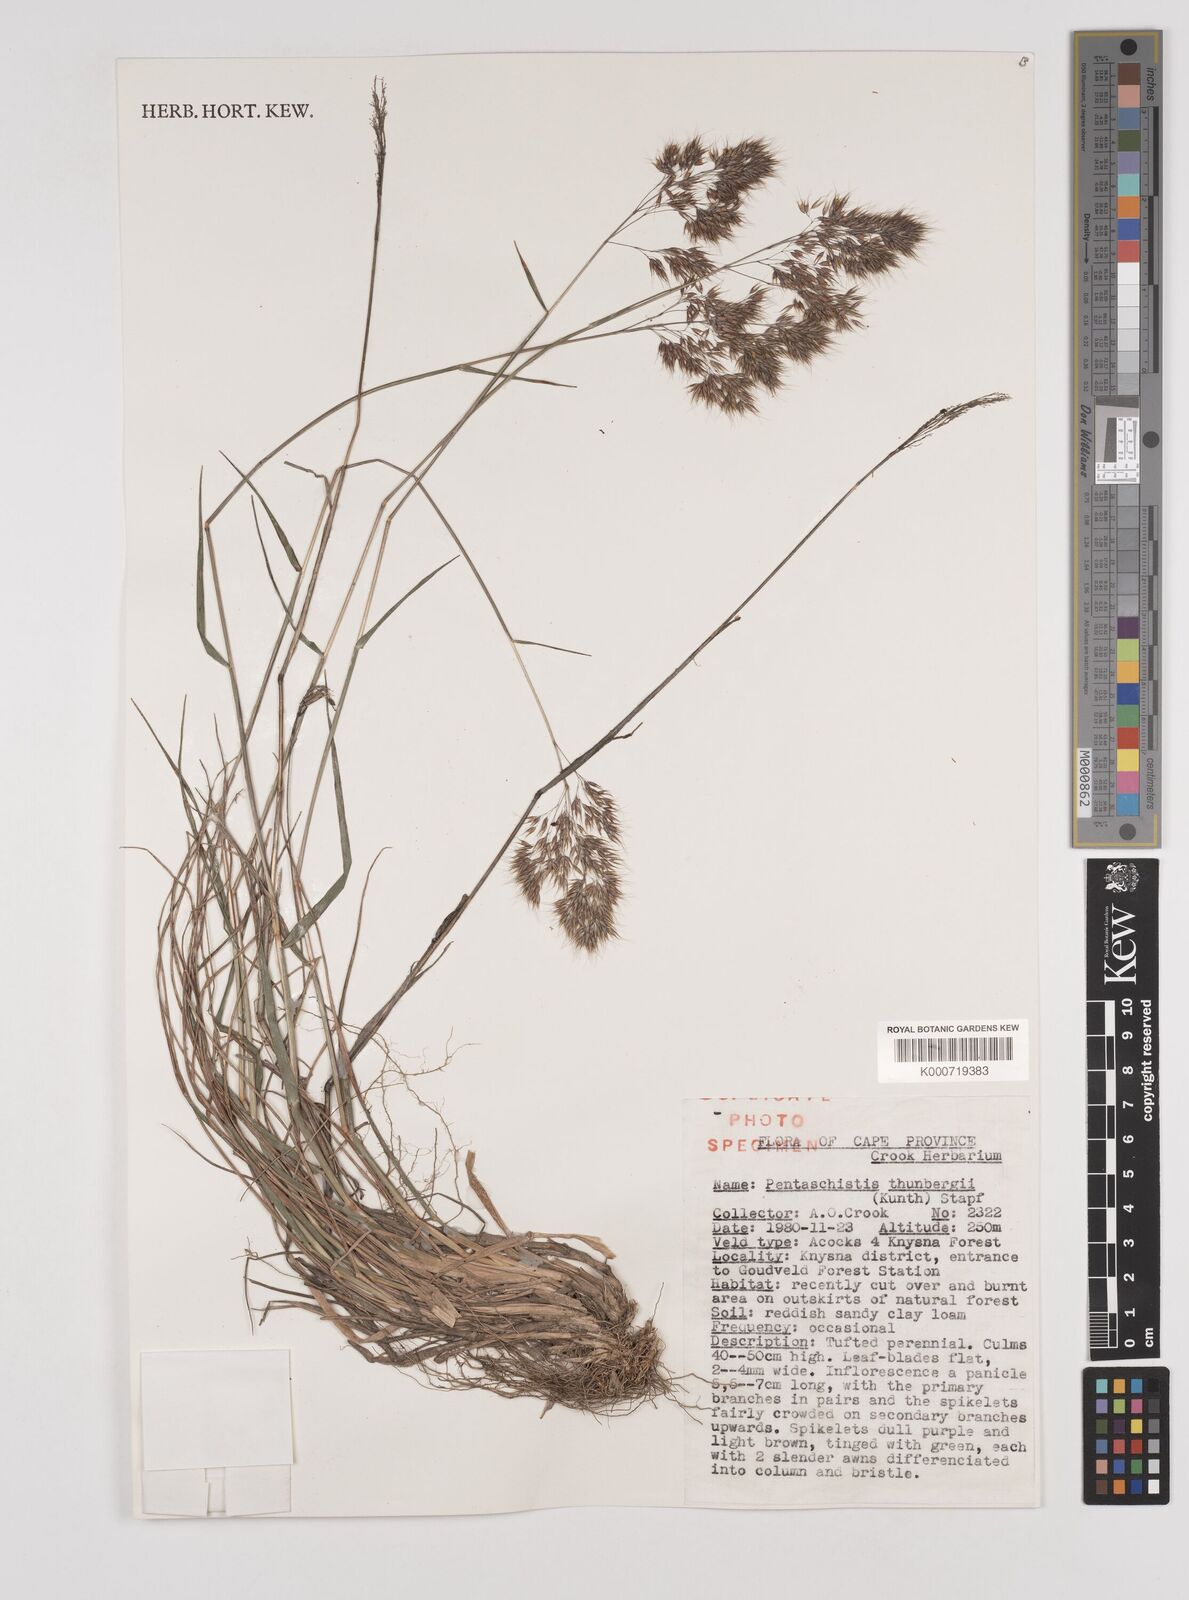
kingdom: Plantae
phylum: Tracheophyta
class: Liliopsida
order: Poales
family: Poaceae
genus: Pentameris
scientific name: Pentameris triseta
